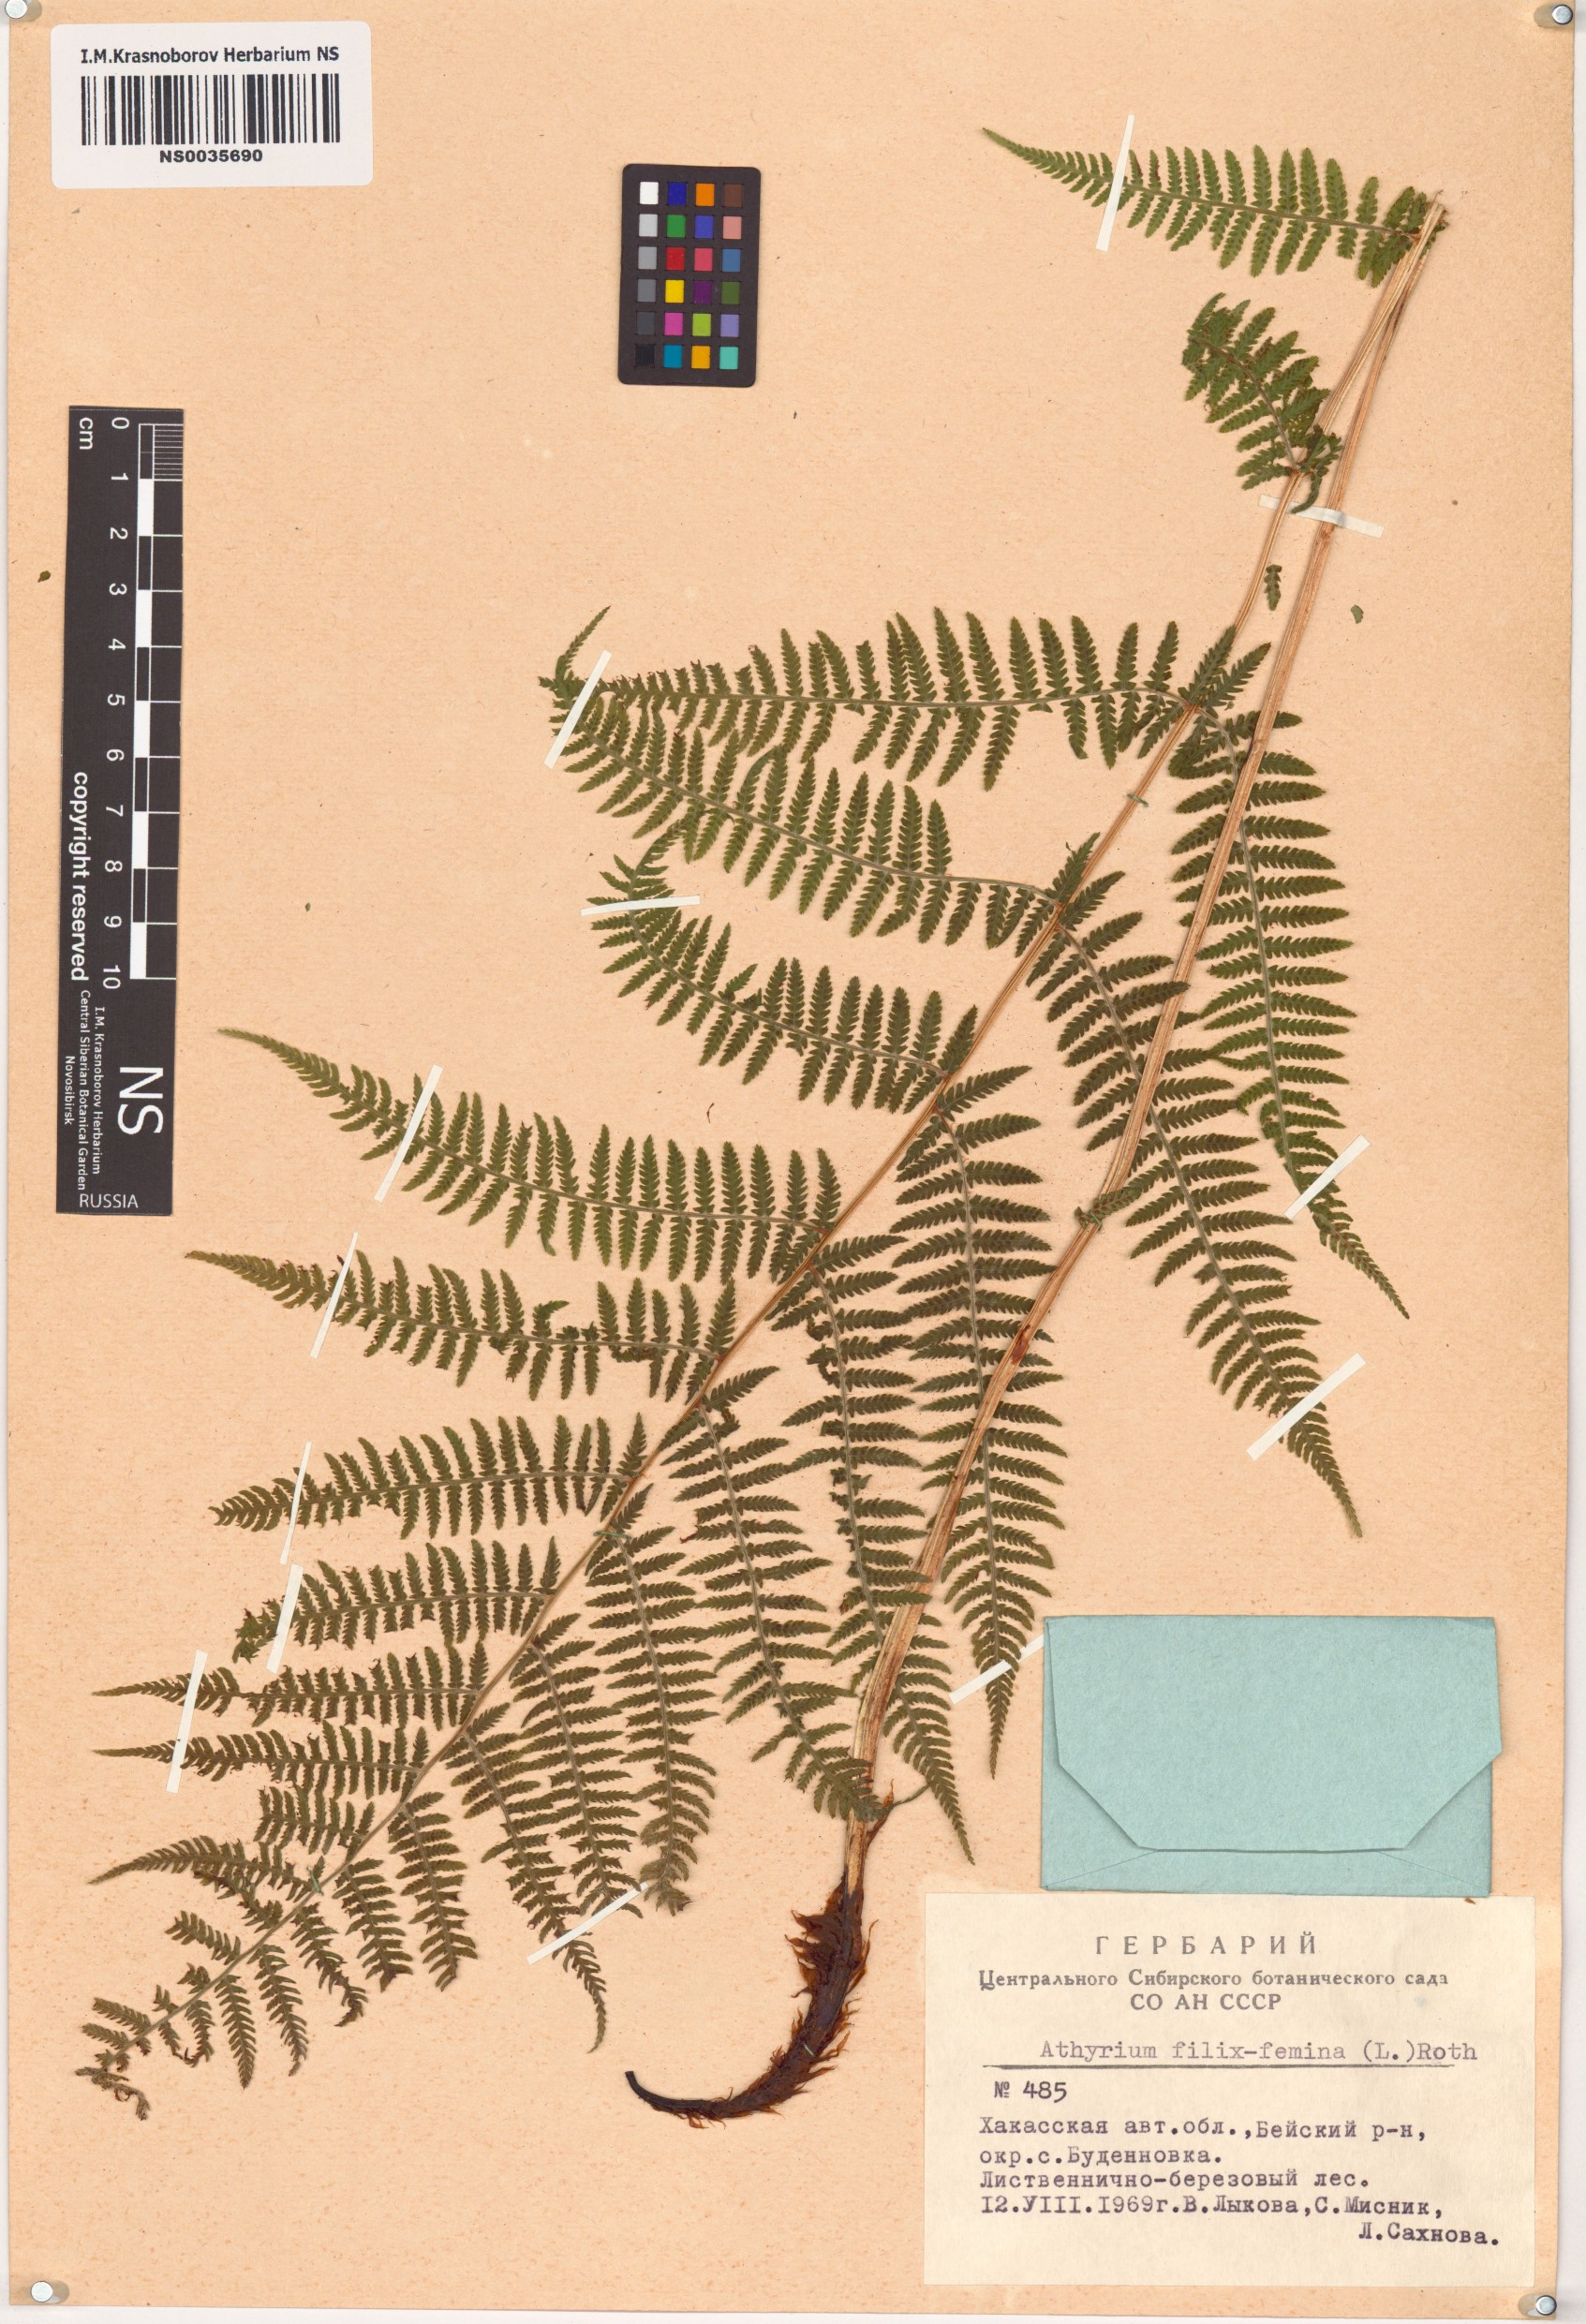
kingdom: Plantae
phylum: Tracheophyta
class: Polypodiopsida
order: Polypodiales
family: Athyriaceae
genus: Athyrium
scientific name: Athyrium filix-femina
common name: Lady fern
